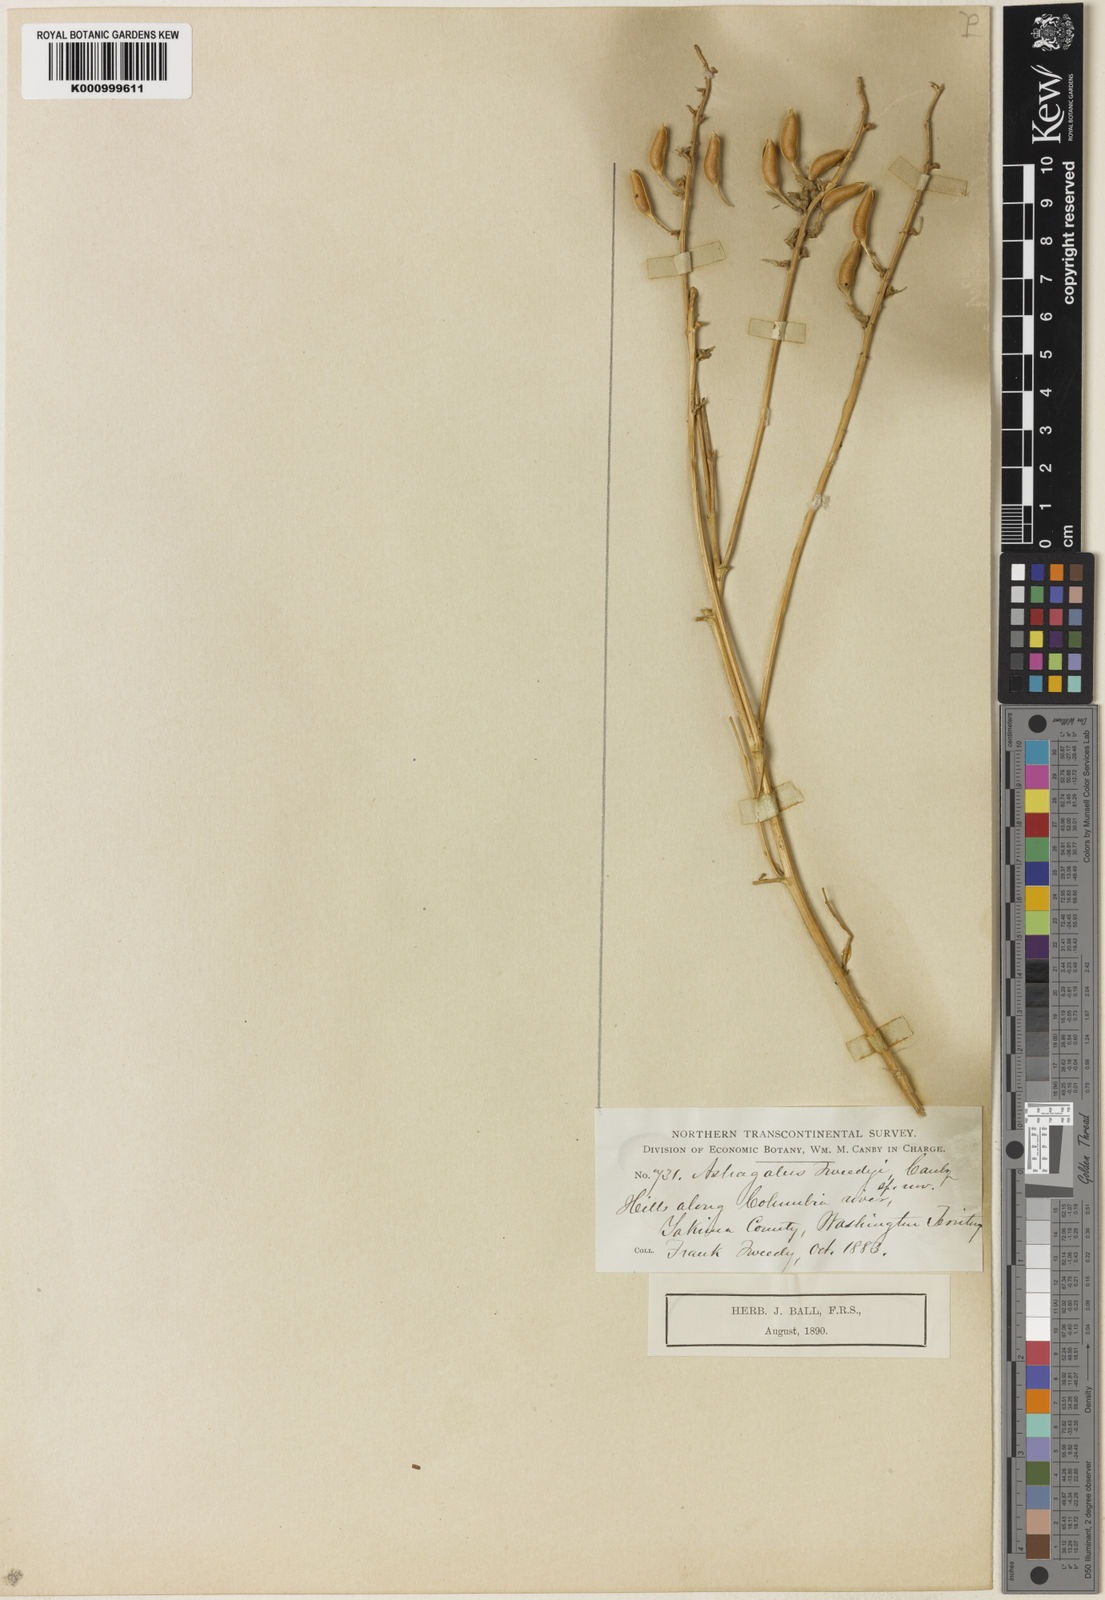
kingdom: Plantae
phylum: Tracheophyta
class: Magnoliopsida
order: Fabales
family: Fabaceae
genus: Astragalus
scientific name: Astragalus tweedyi
